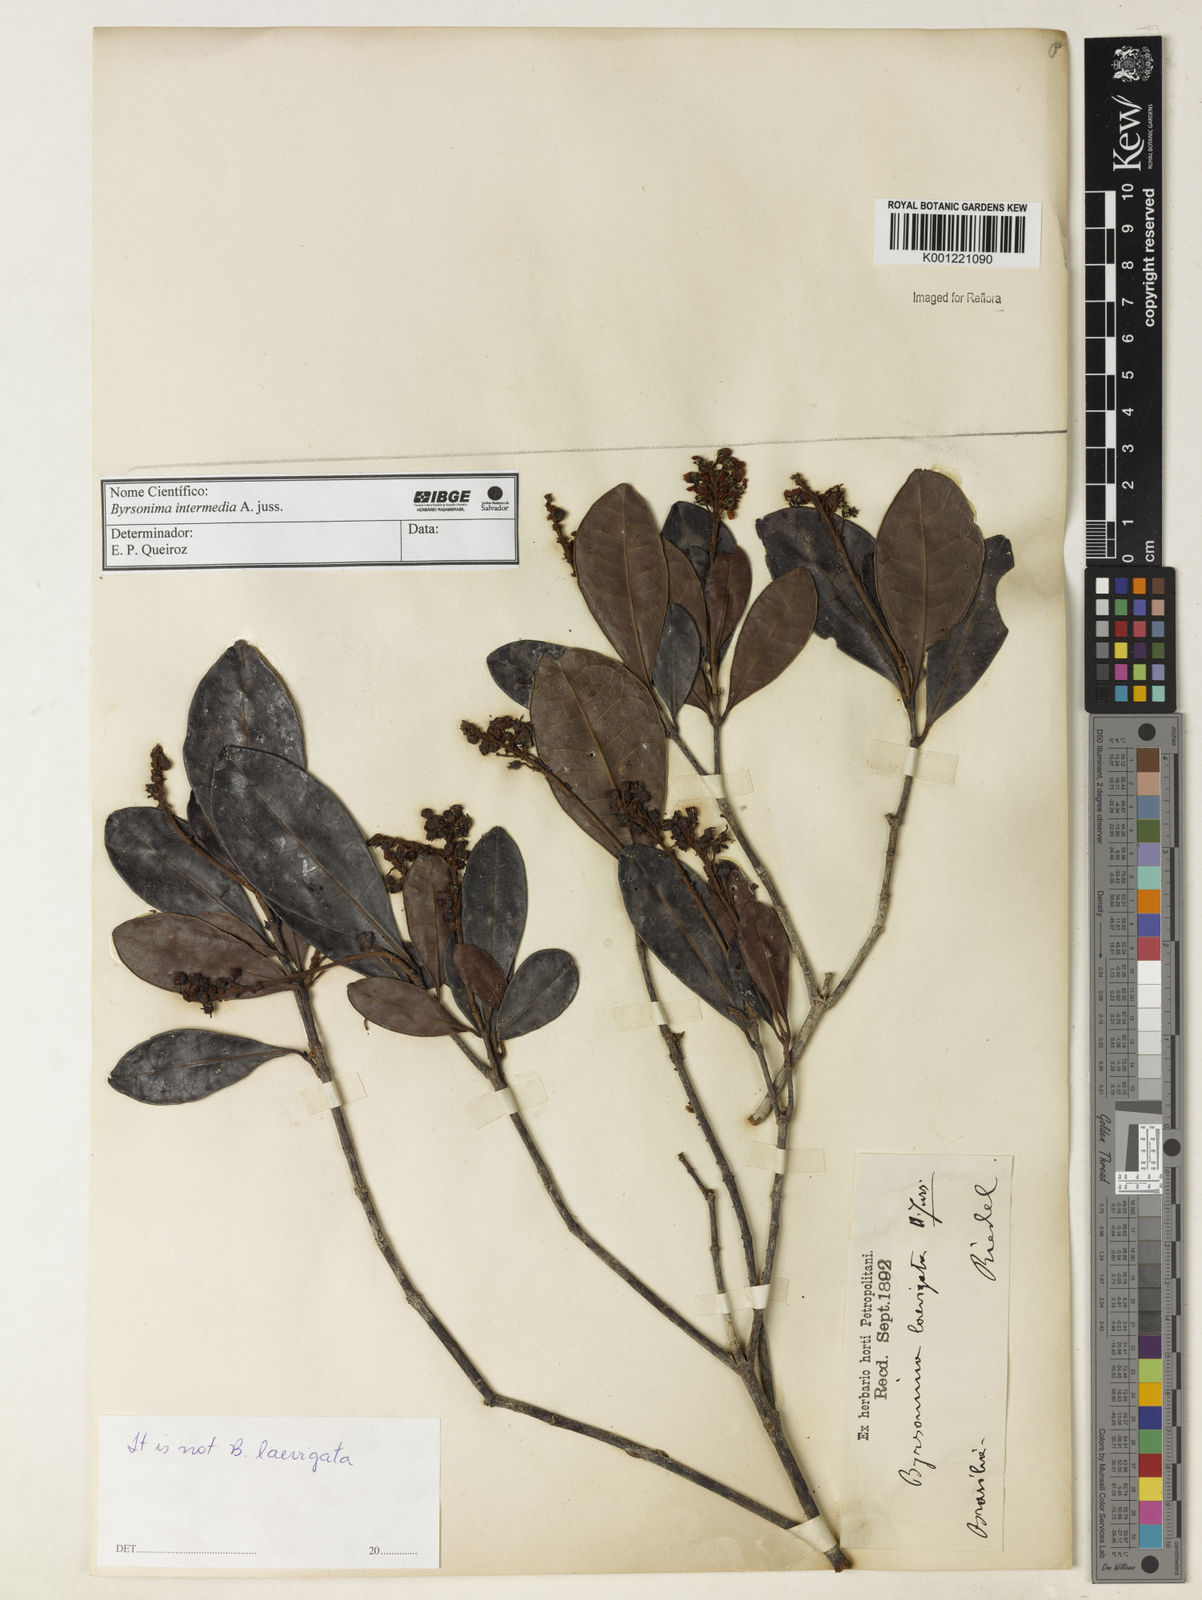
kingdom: Plantae
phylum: Tracheophyta
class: Magnoliopsida
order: Malpighiales
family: Malpighiaceae
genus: Byrsonima
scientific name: Byrsonima intermedia
